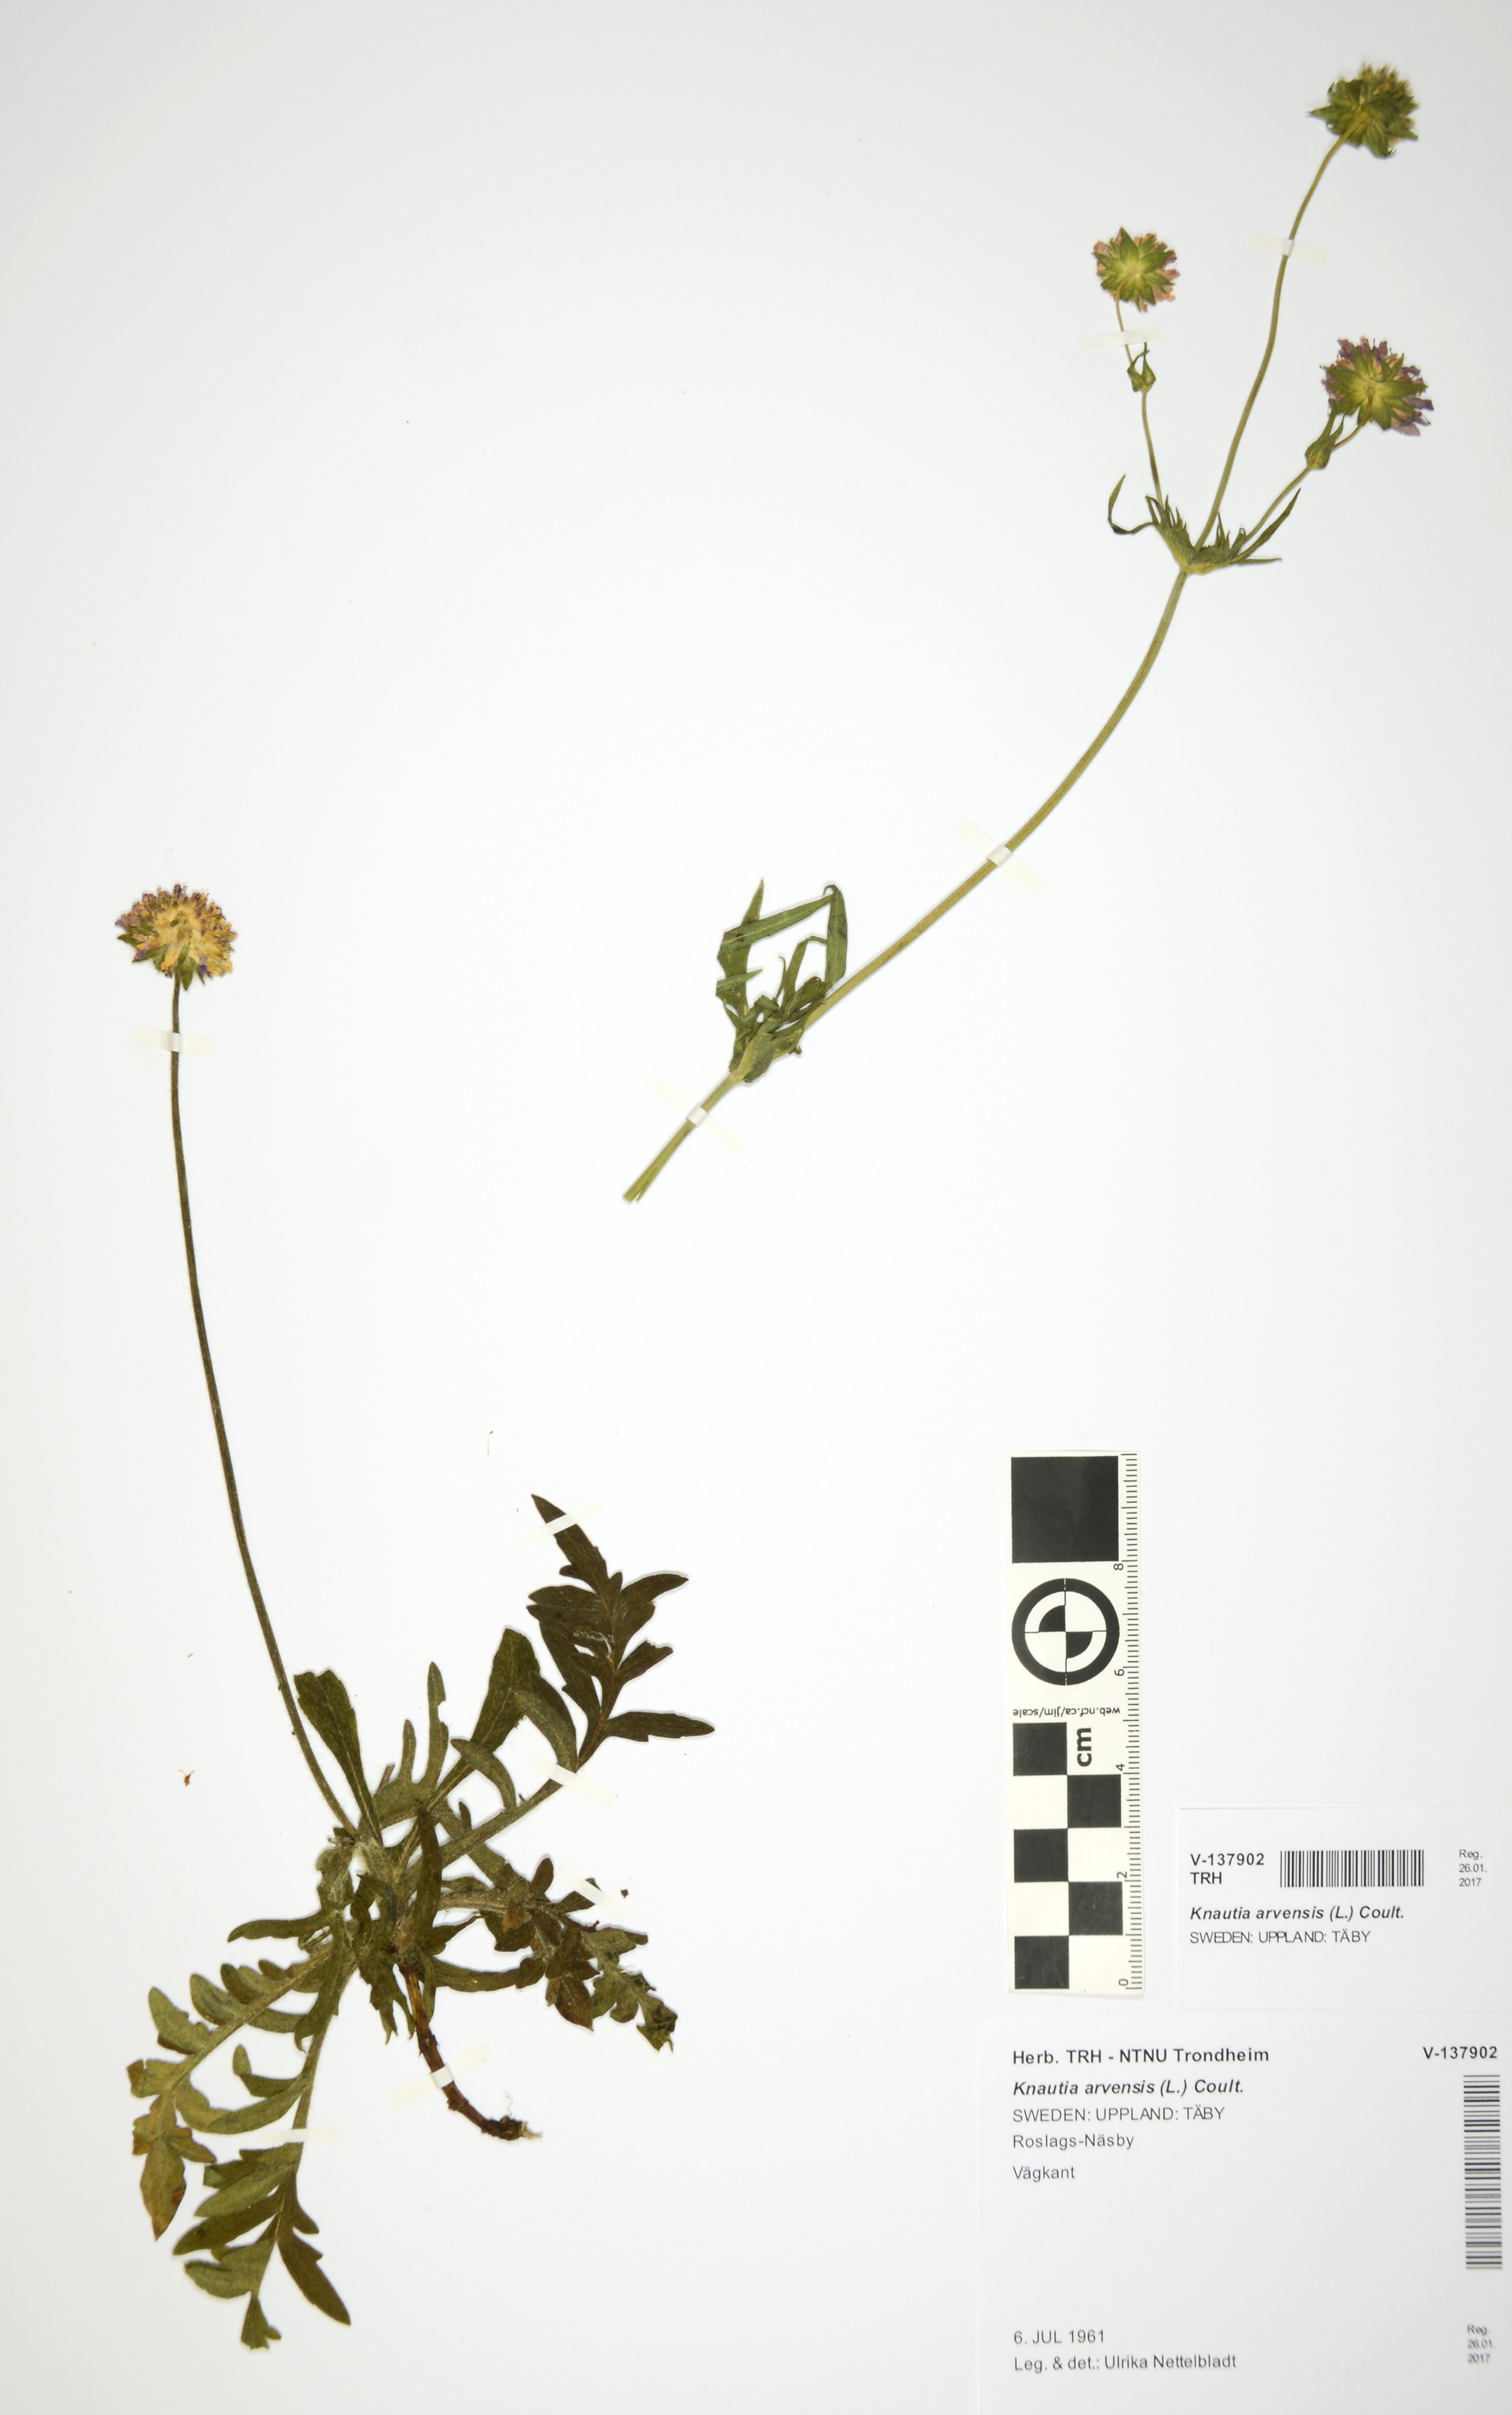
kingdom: Plantae
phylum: Tracheophyta
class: Magnoliopsida
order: Dipsacales
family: Caprifoliaceae
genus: Knautia
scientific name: Knautia arvensis
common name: Field scabiosa
